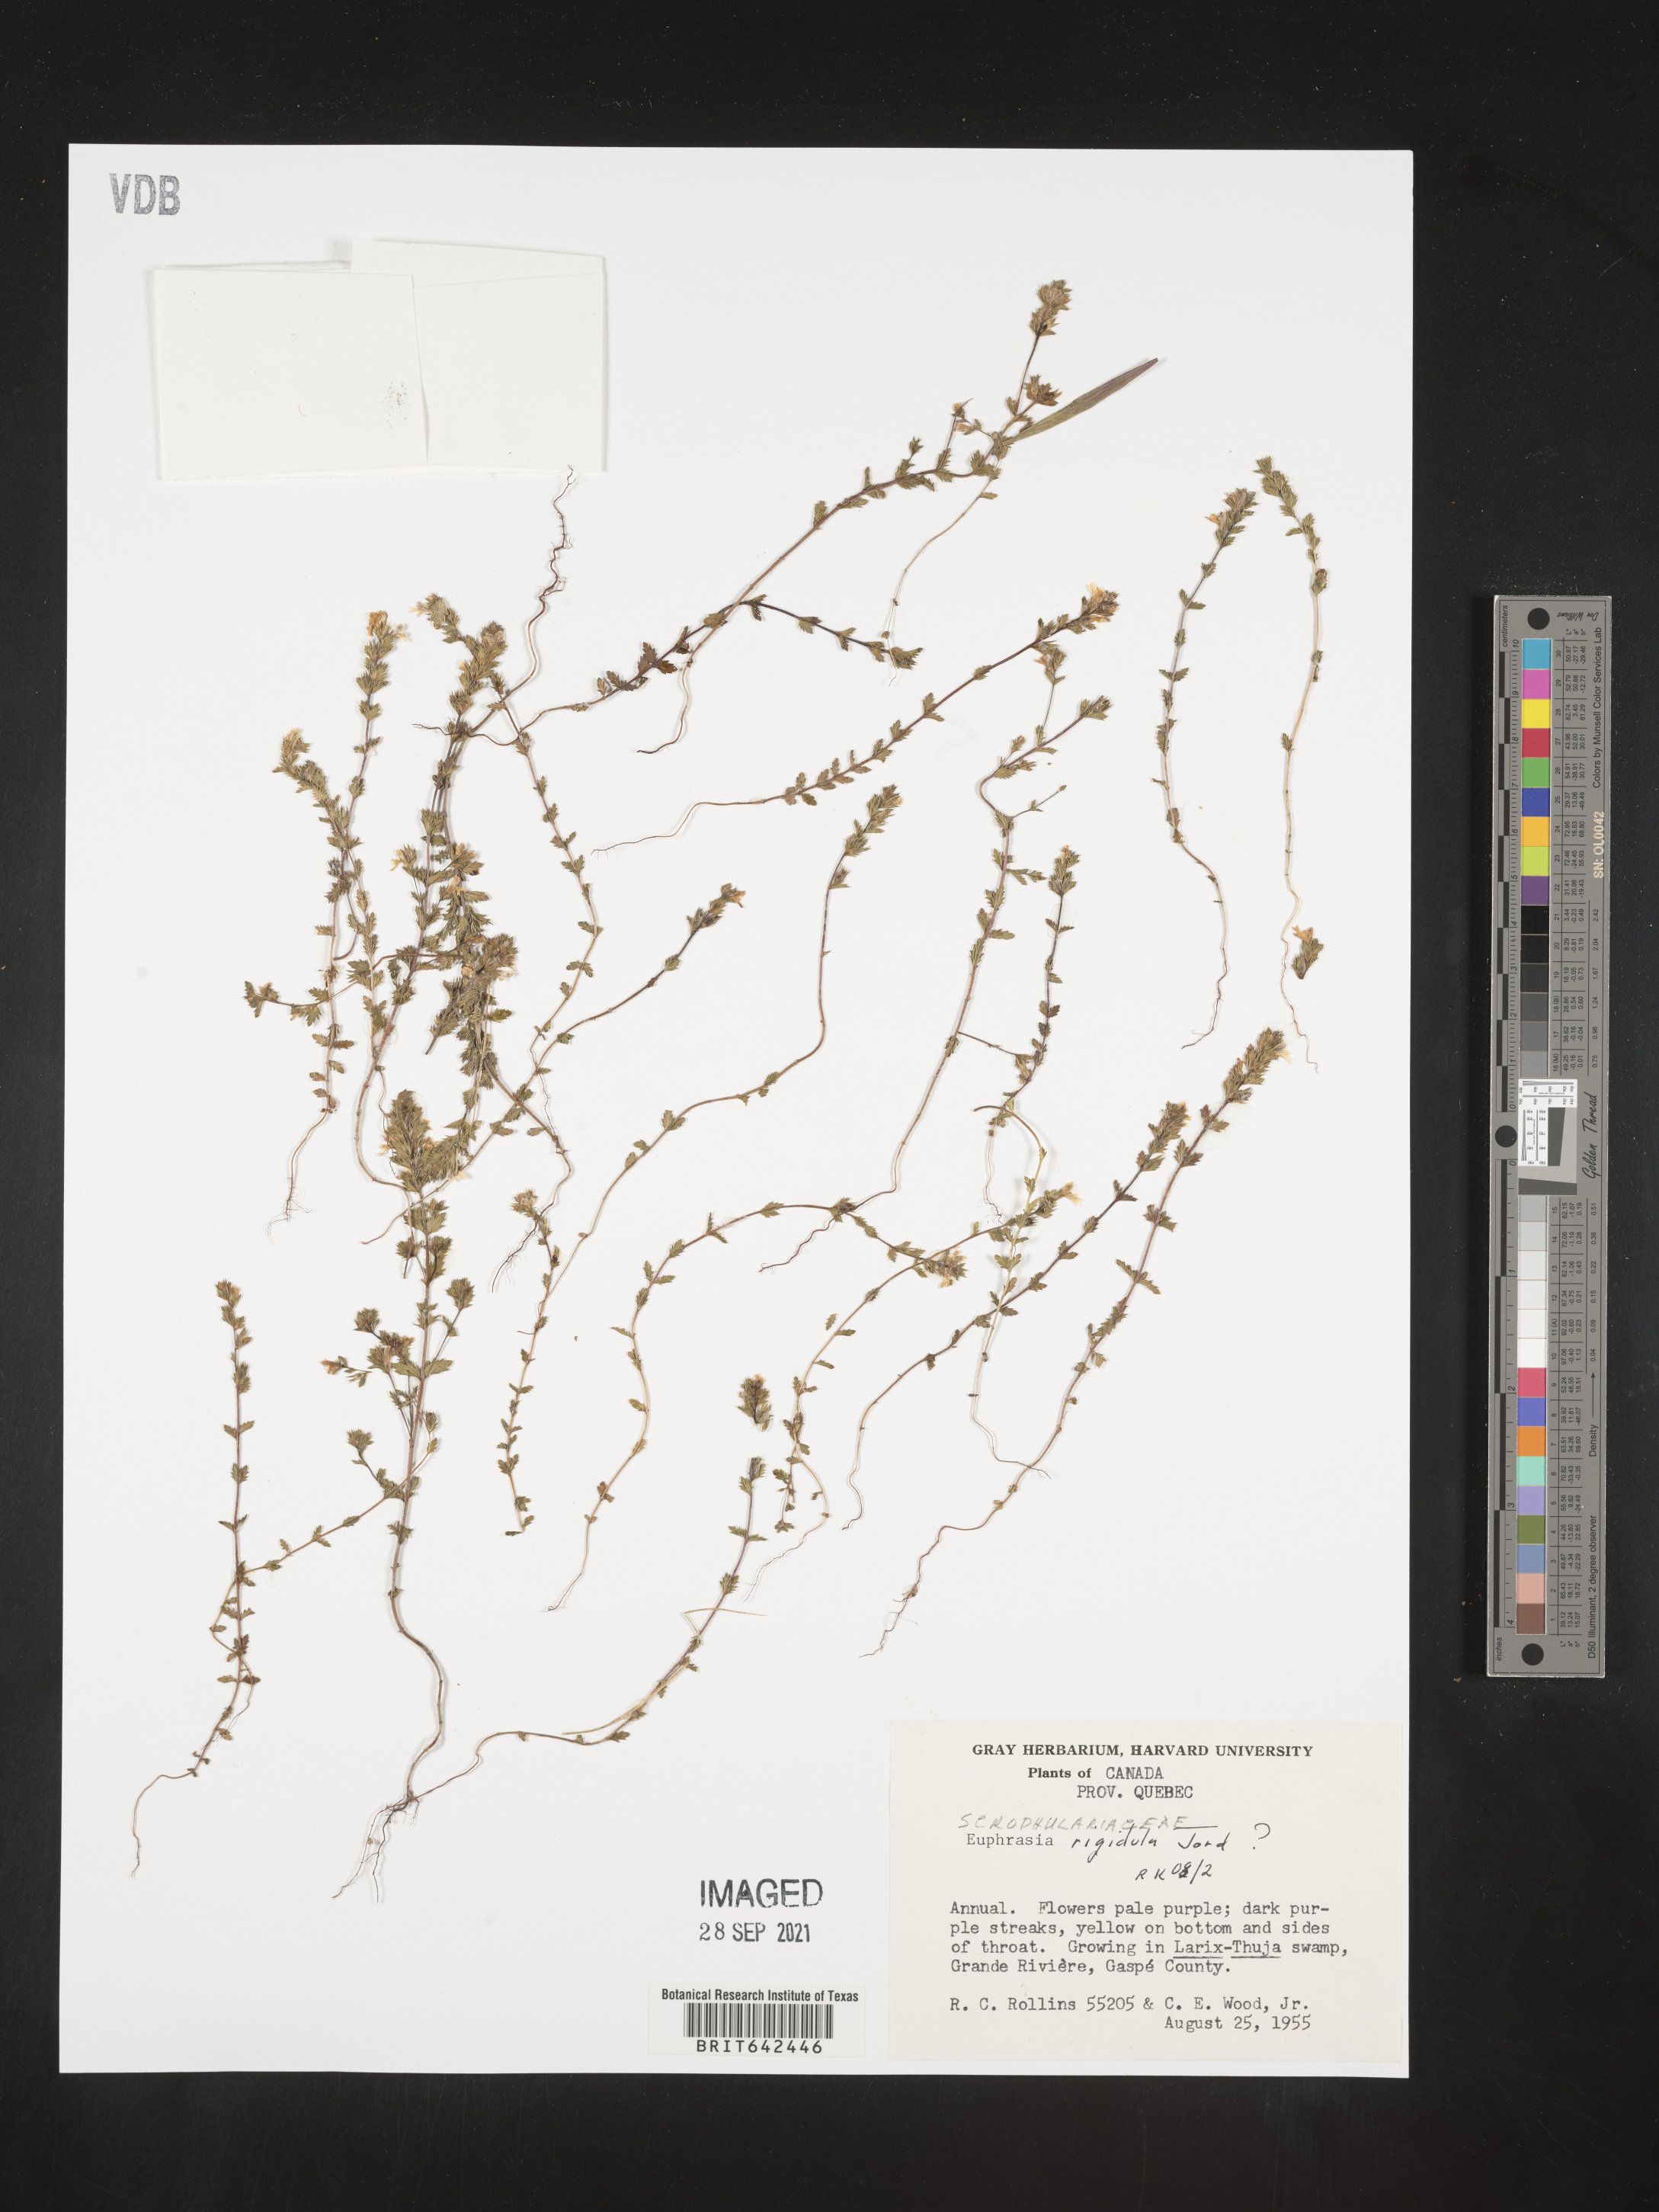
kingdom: Plantae
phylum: Tracheophyta
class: Magnoliopsida
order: Lamiales
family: Orobanchaceae
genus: Euphrasia
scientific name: Euphrasia
